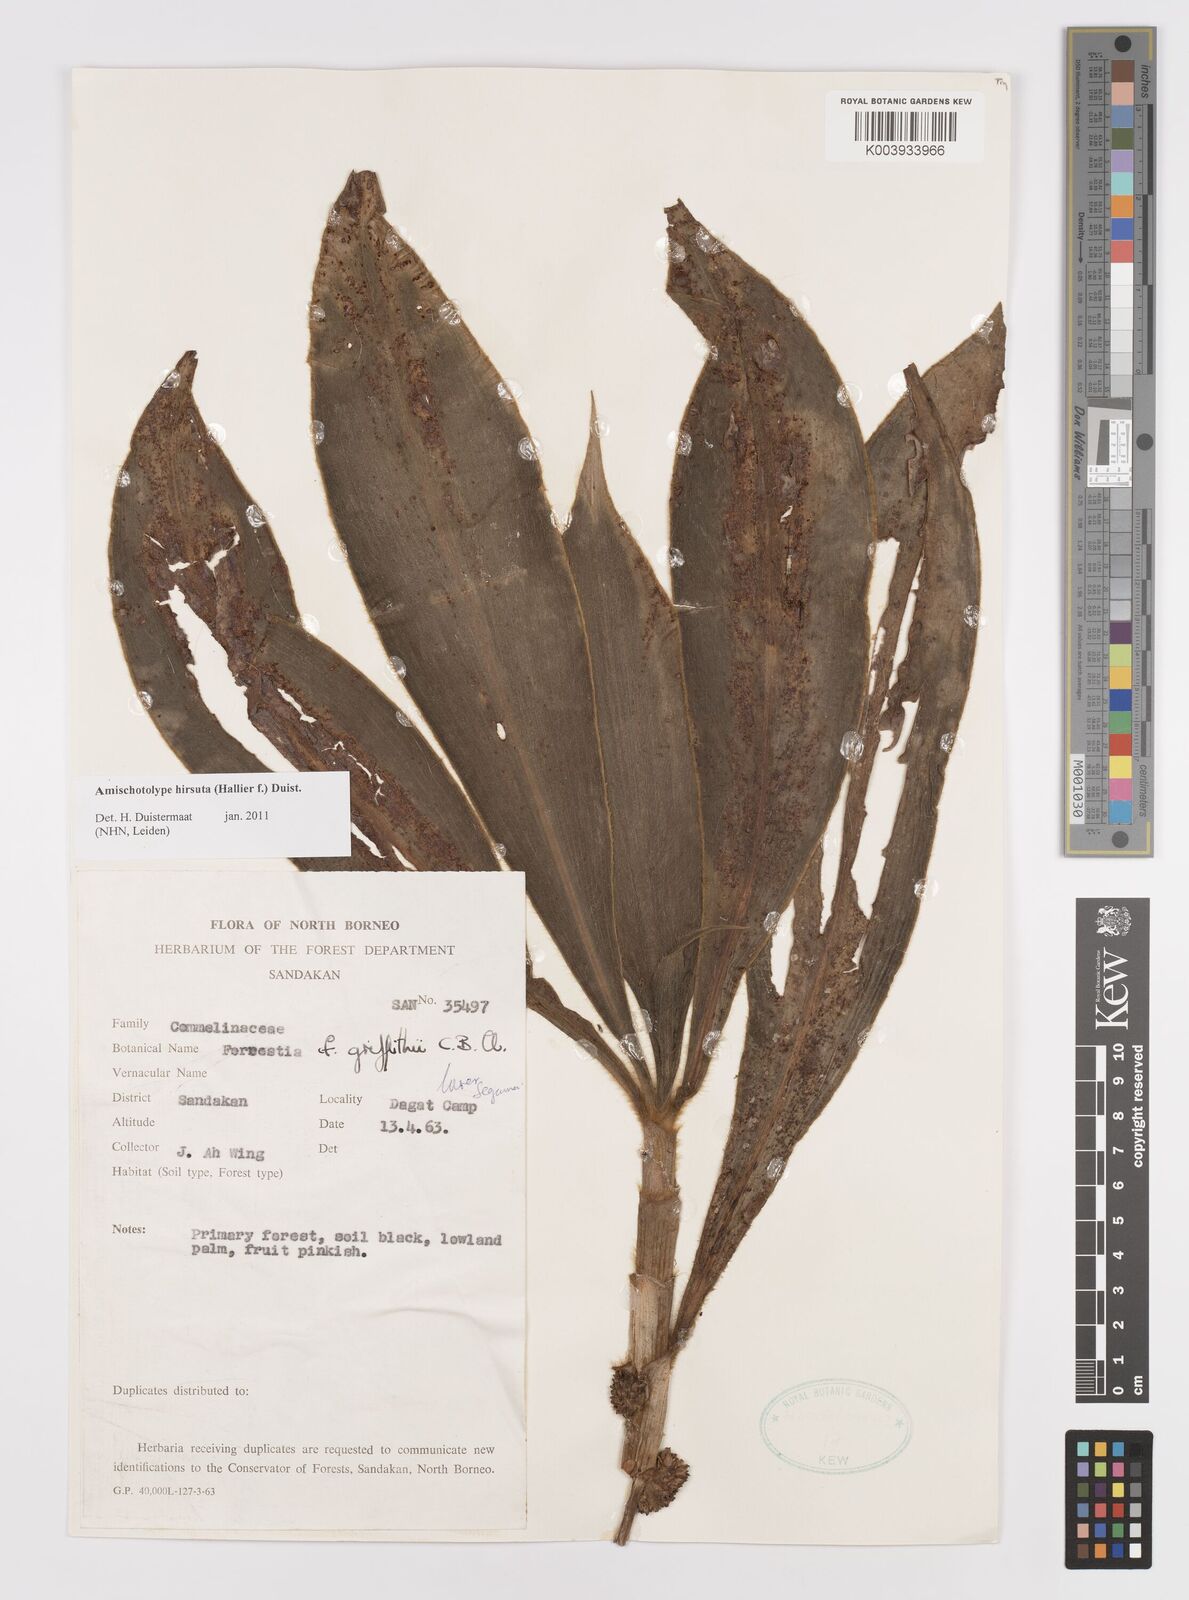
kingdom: Plantae
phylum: Tracheophyta
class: Liliopsida
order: Commelinales
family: Commelinaceae
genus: Amischotolype
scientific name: Amischotolype hirsuta
